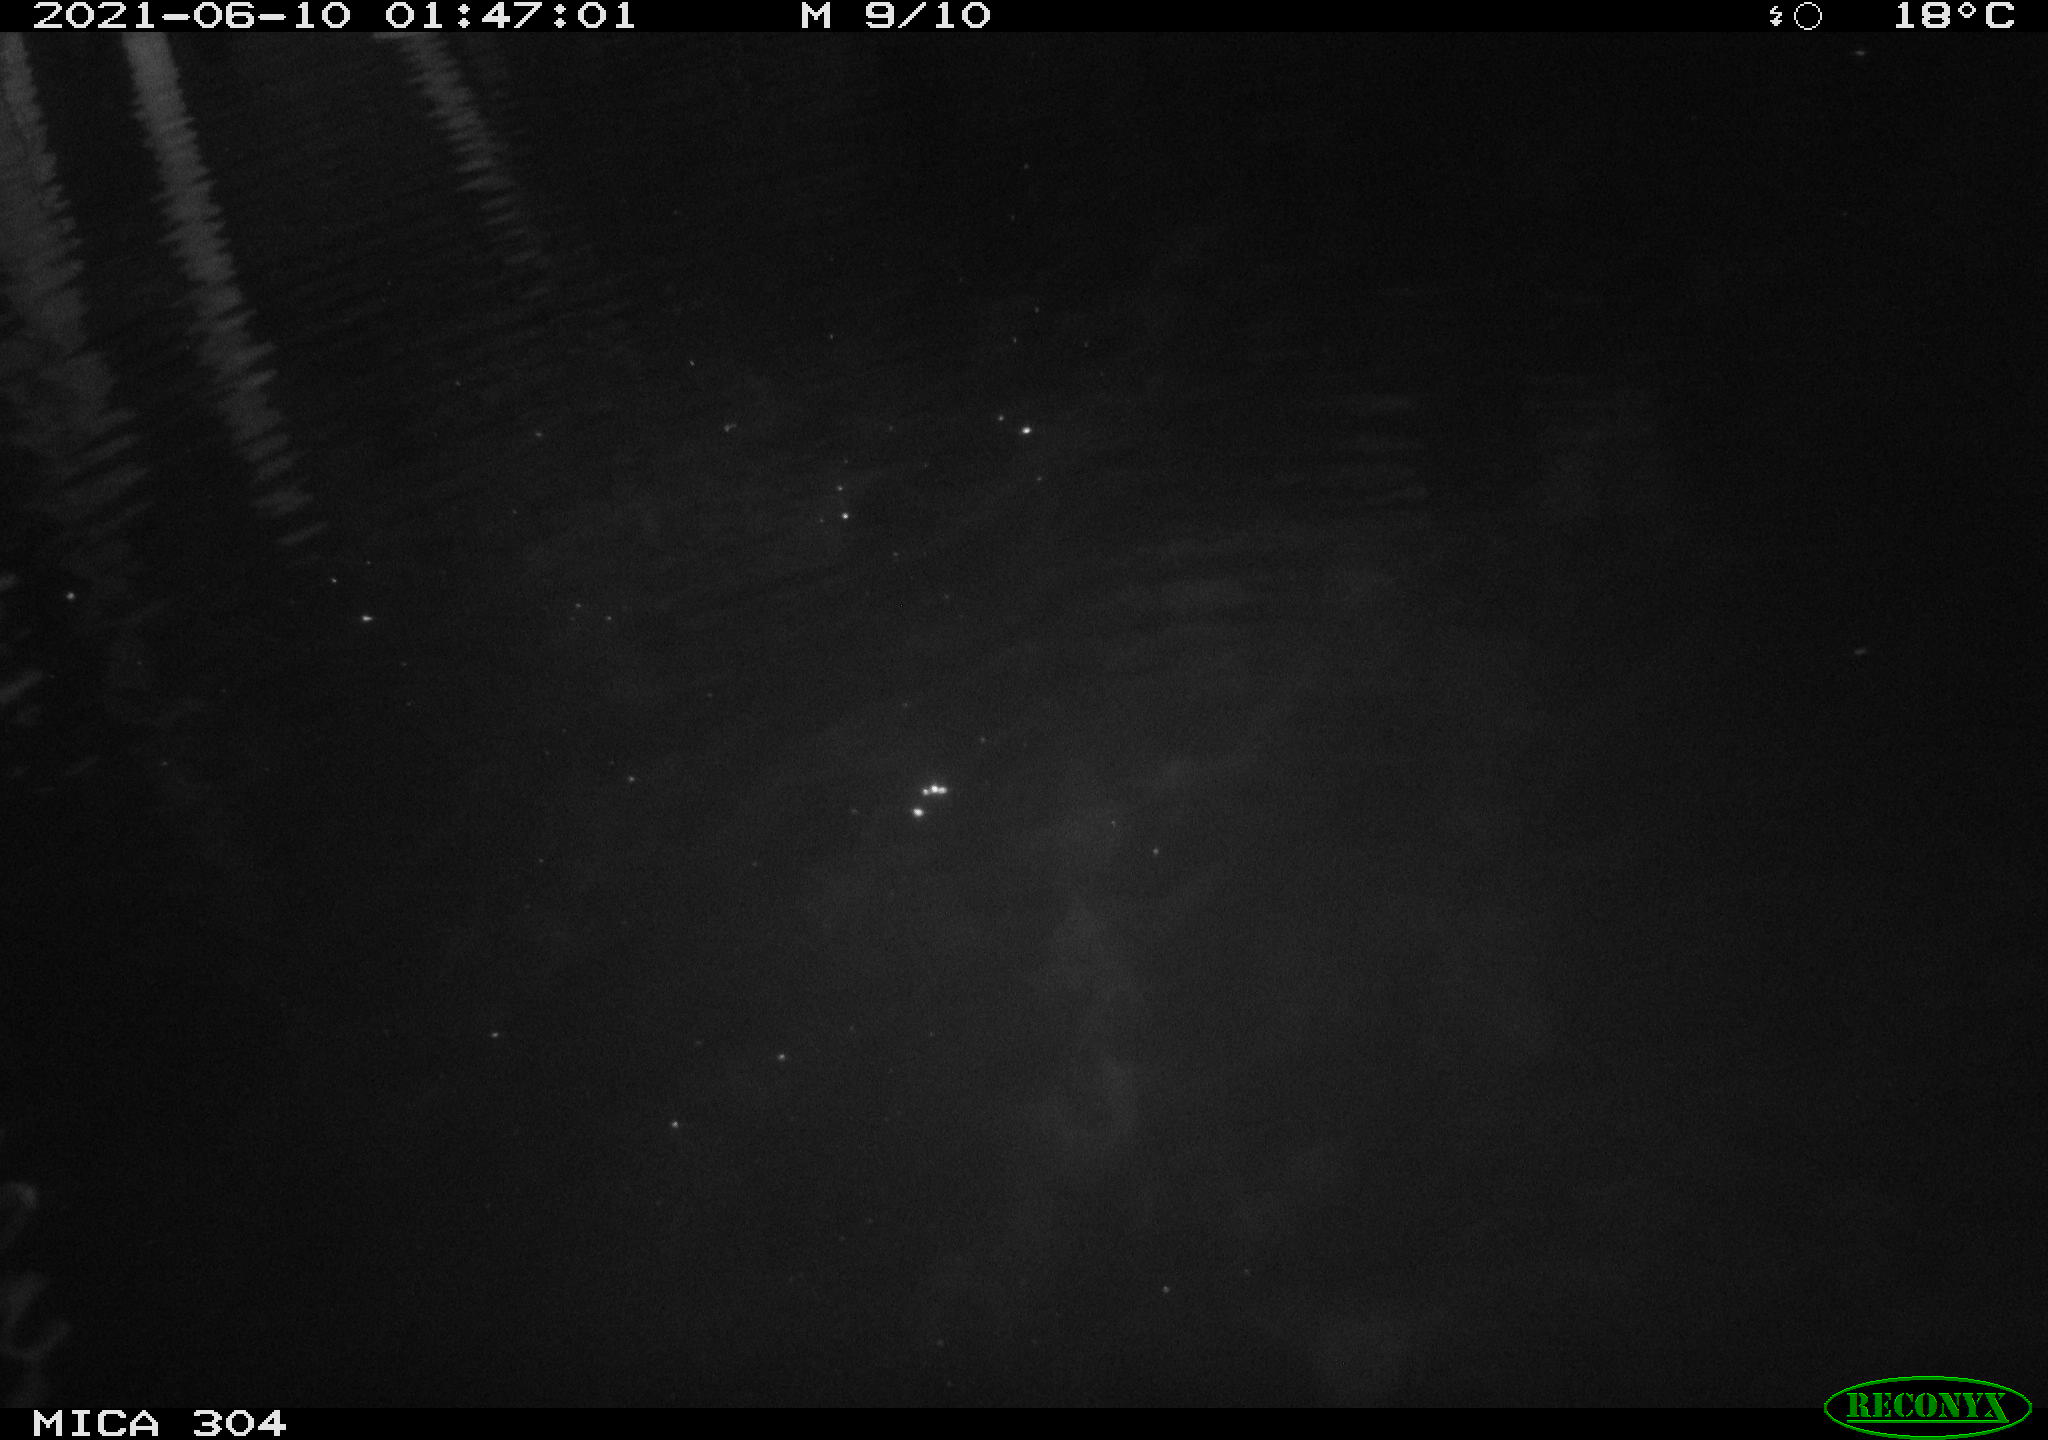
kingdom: Animalia
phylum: Chordata
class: Mammalia
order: Rodentia
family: Cricetidae
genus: Ondatra
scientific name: Ondatra zibethicus
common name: Muskrat
